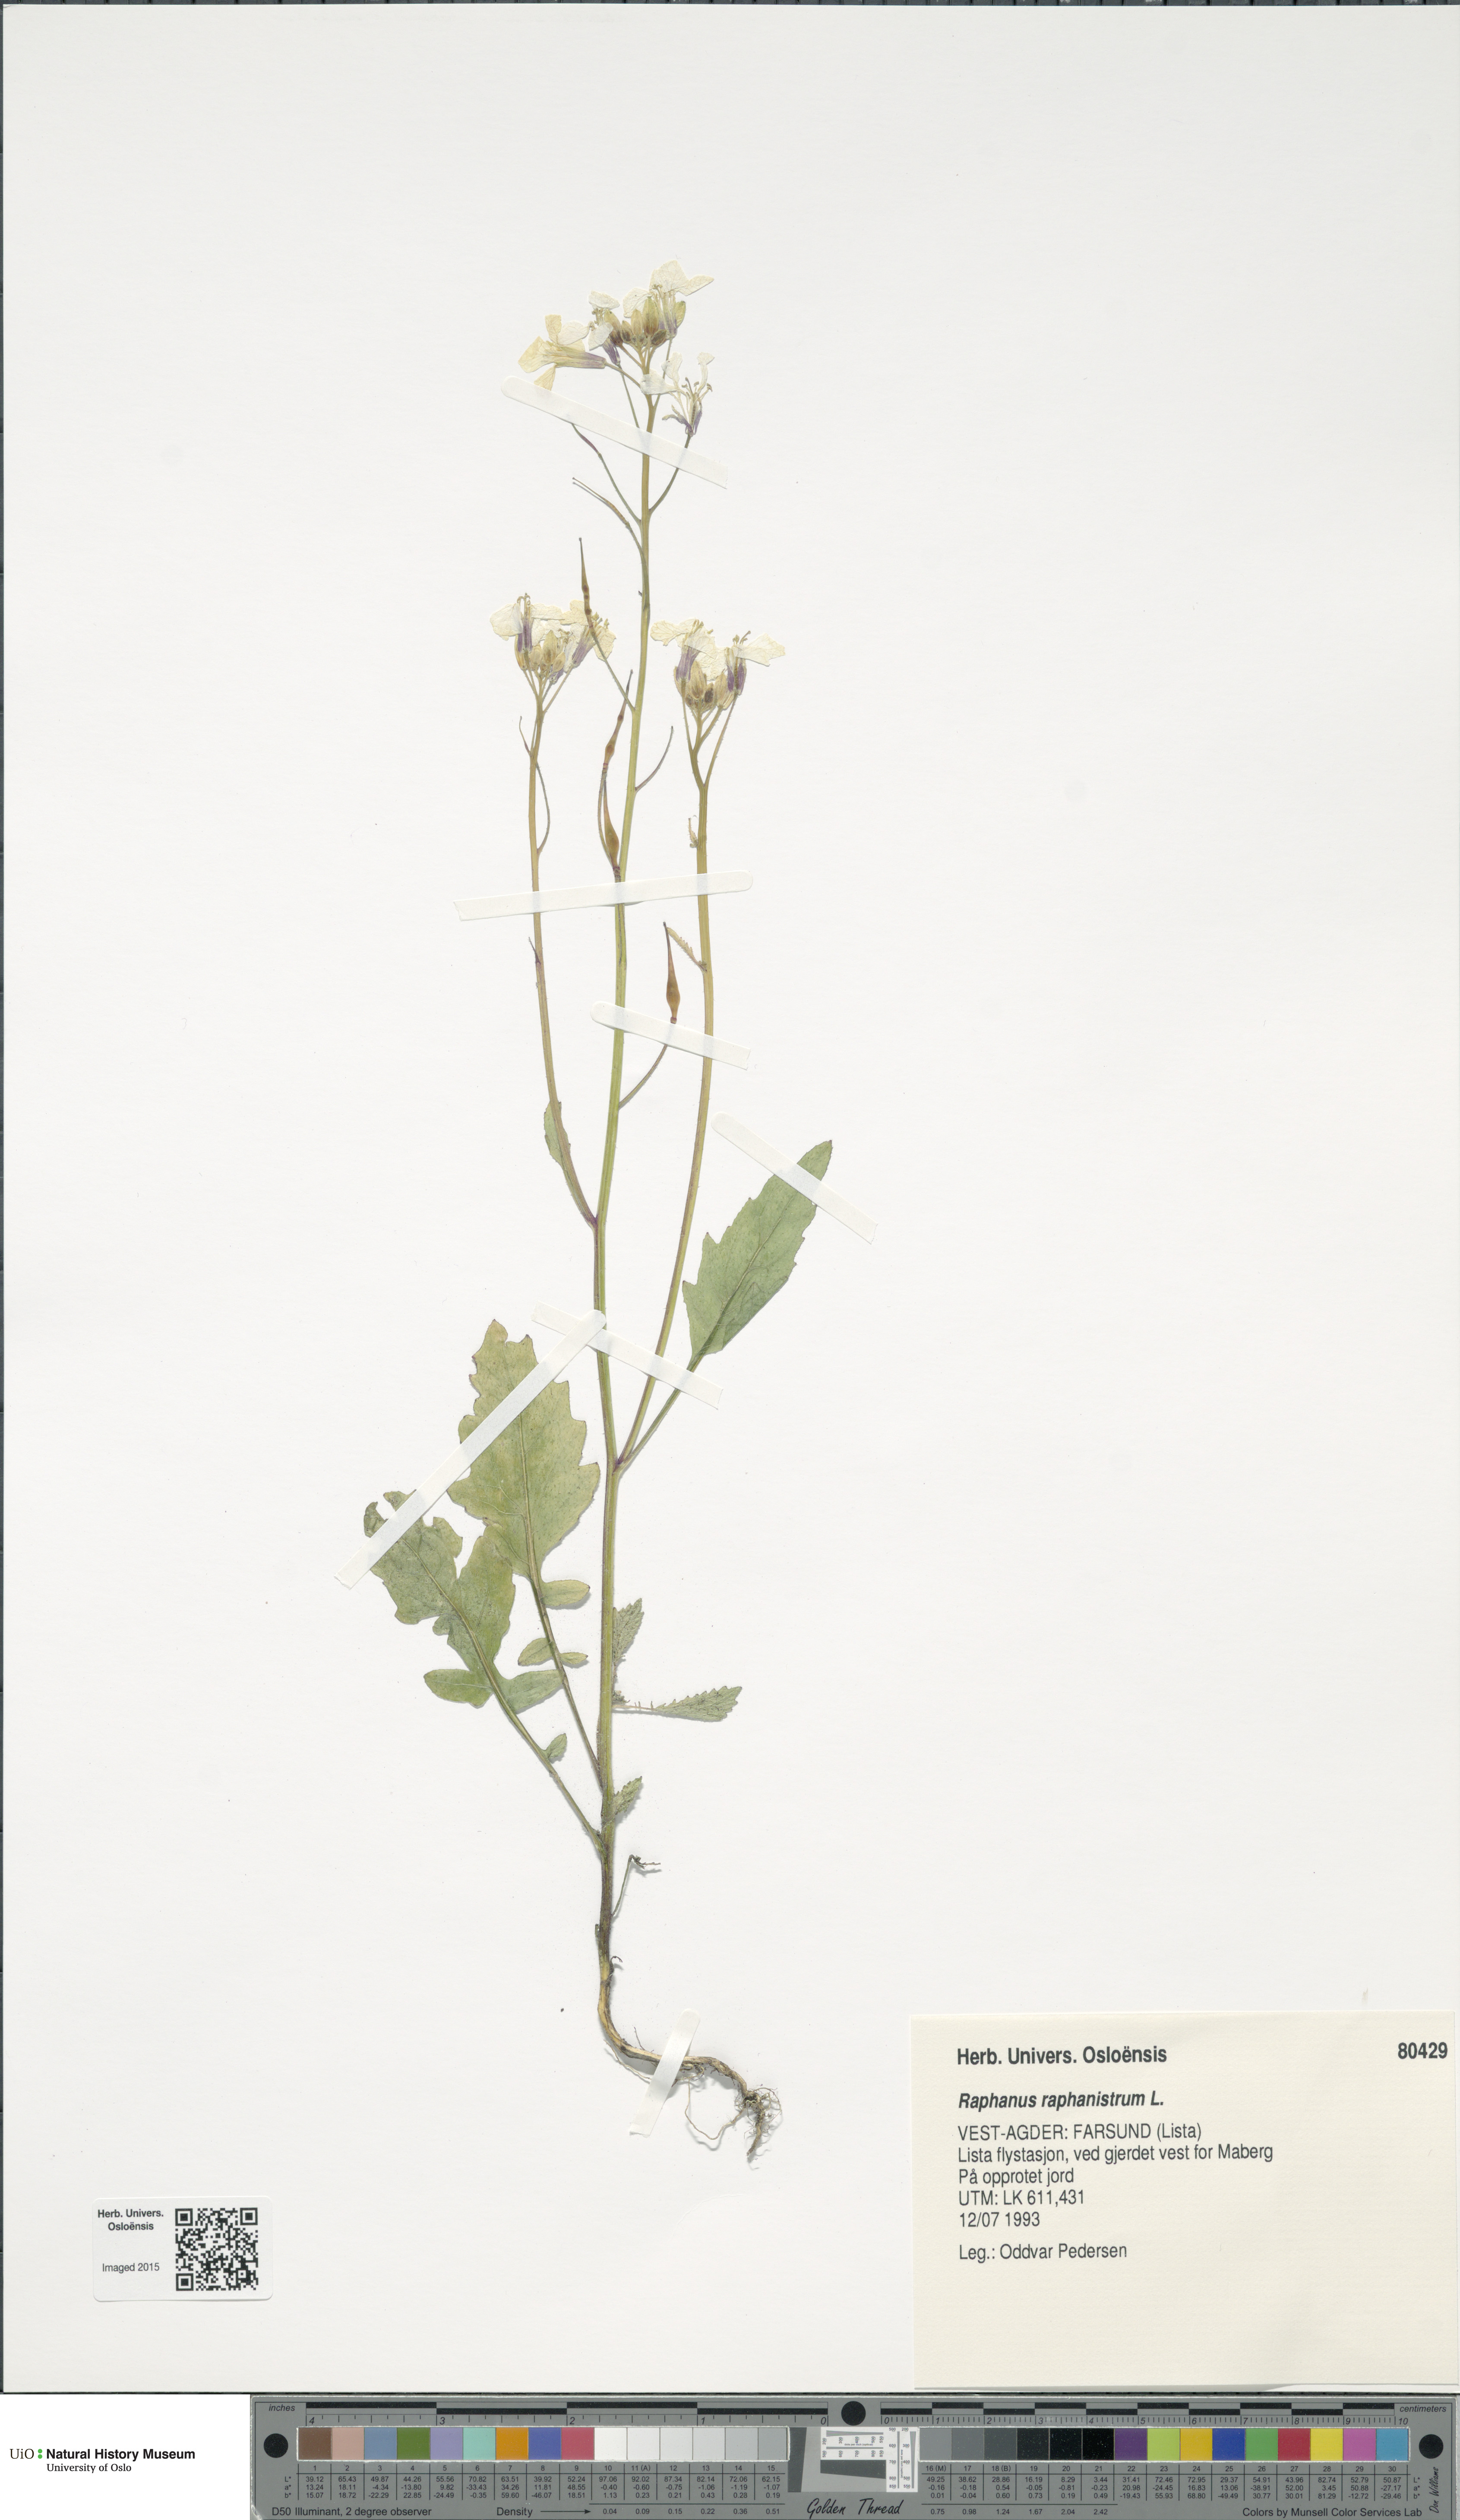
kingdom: Plantae
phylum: Tracheophyta
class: Magnoliopsida
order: Brassicales
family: Brassicaceae
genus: Raphanus
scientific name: Raphanus raphanistrum
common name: Wild radish
